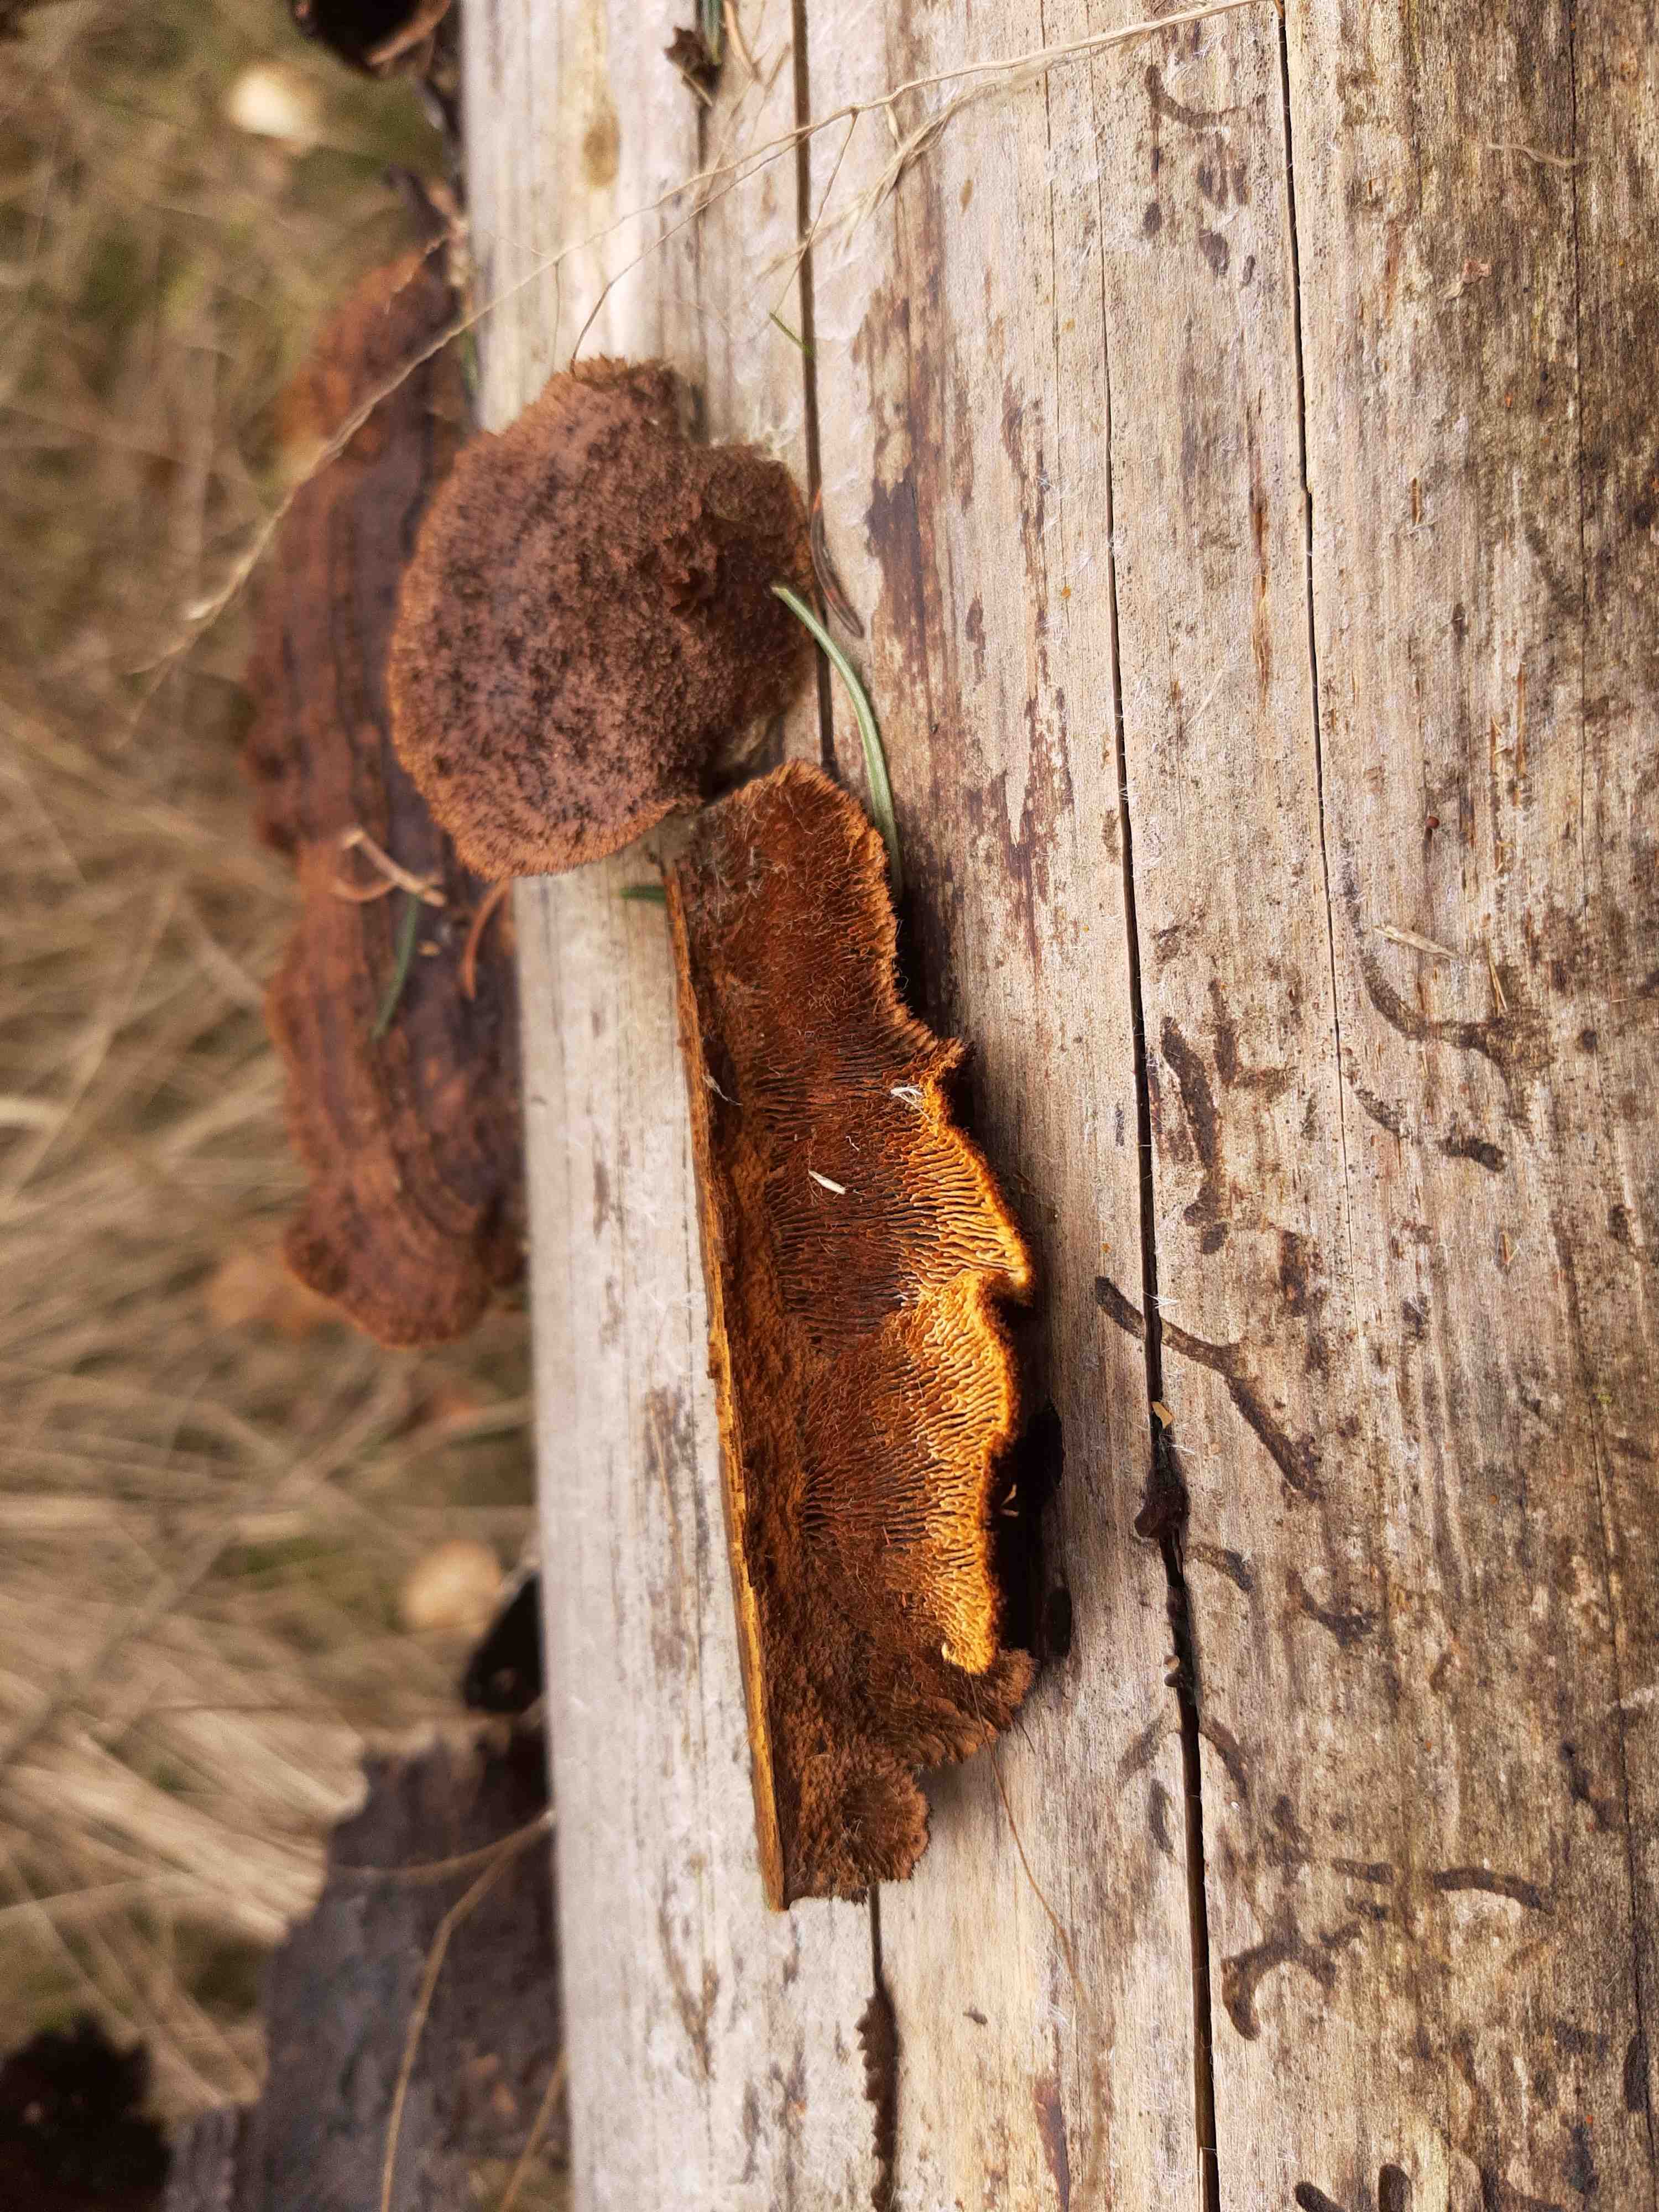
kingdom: Fungi
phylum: Basidiomycota
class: Agaricomycetes
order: Gloeophyllales
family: Gloeophyllaceae
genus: Gloeophyllum
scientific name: Gloeophyllum sepiarium
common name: fyrre-korkhat
